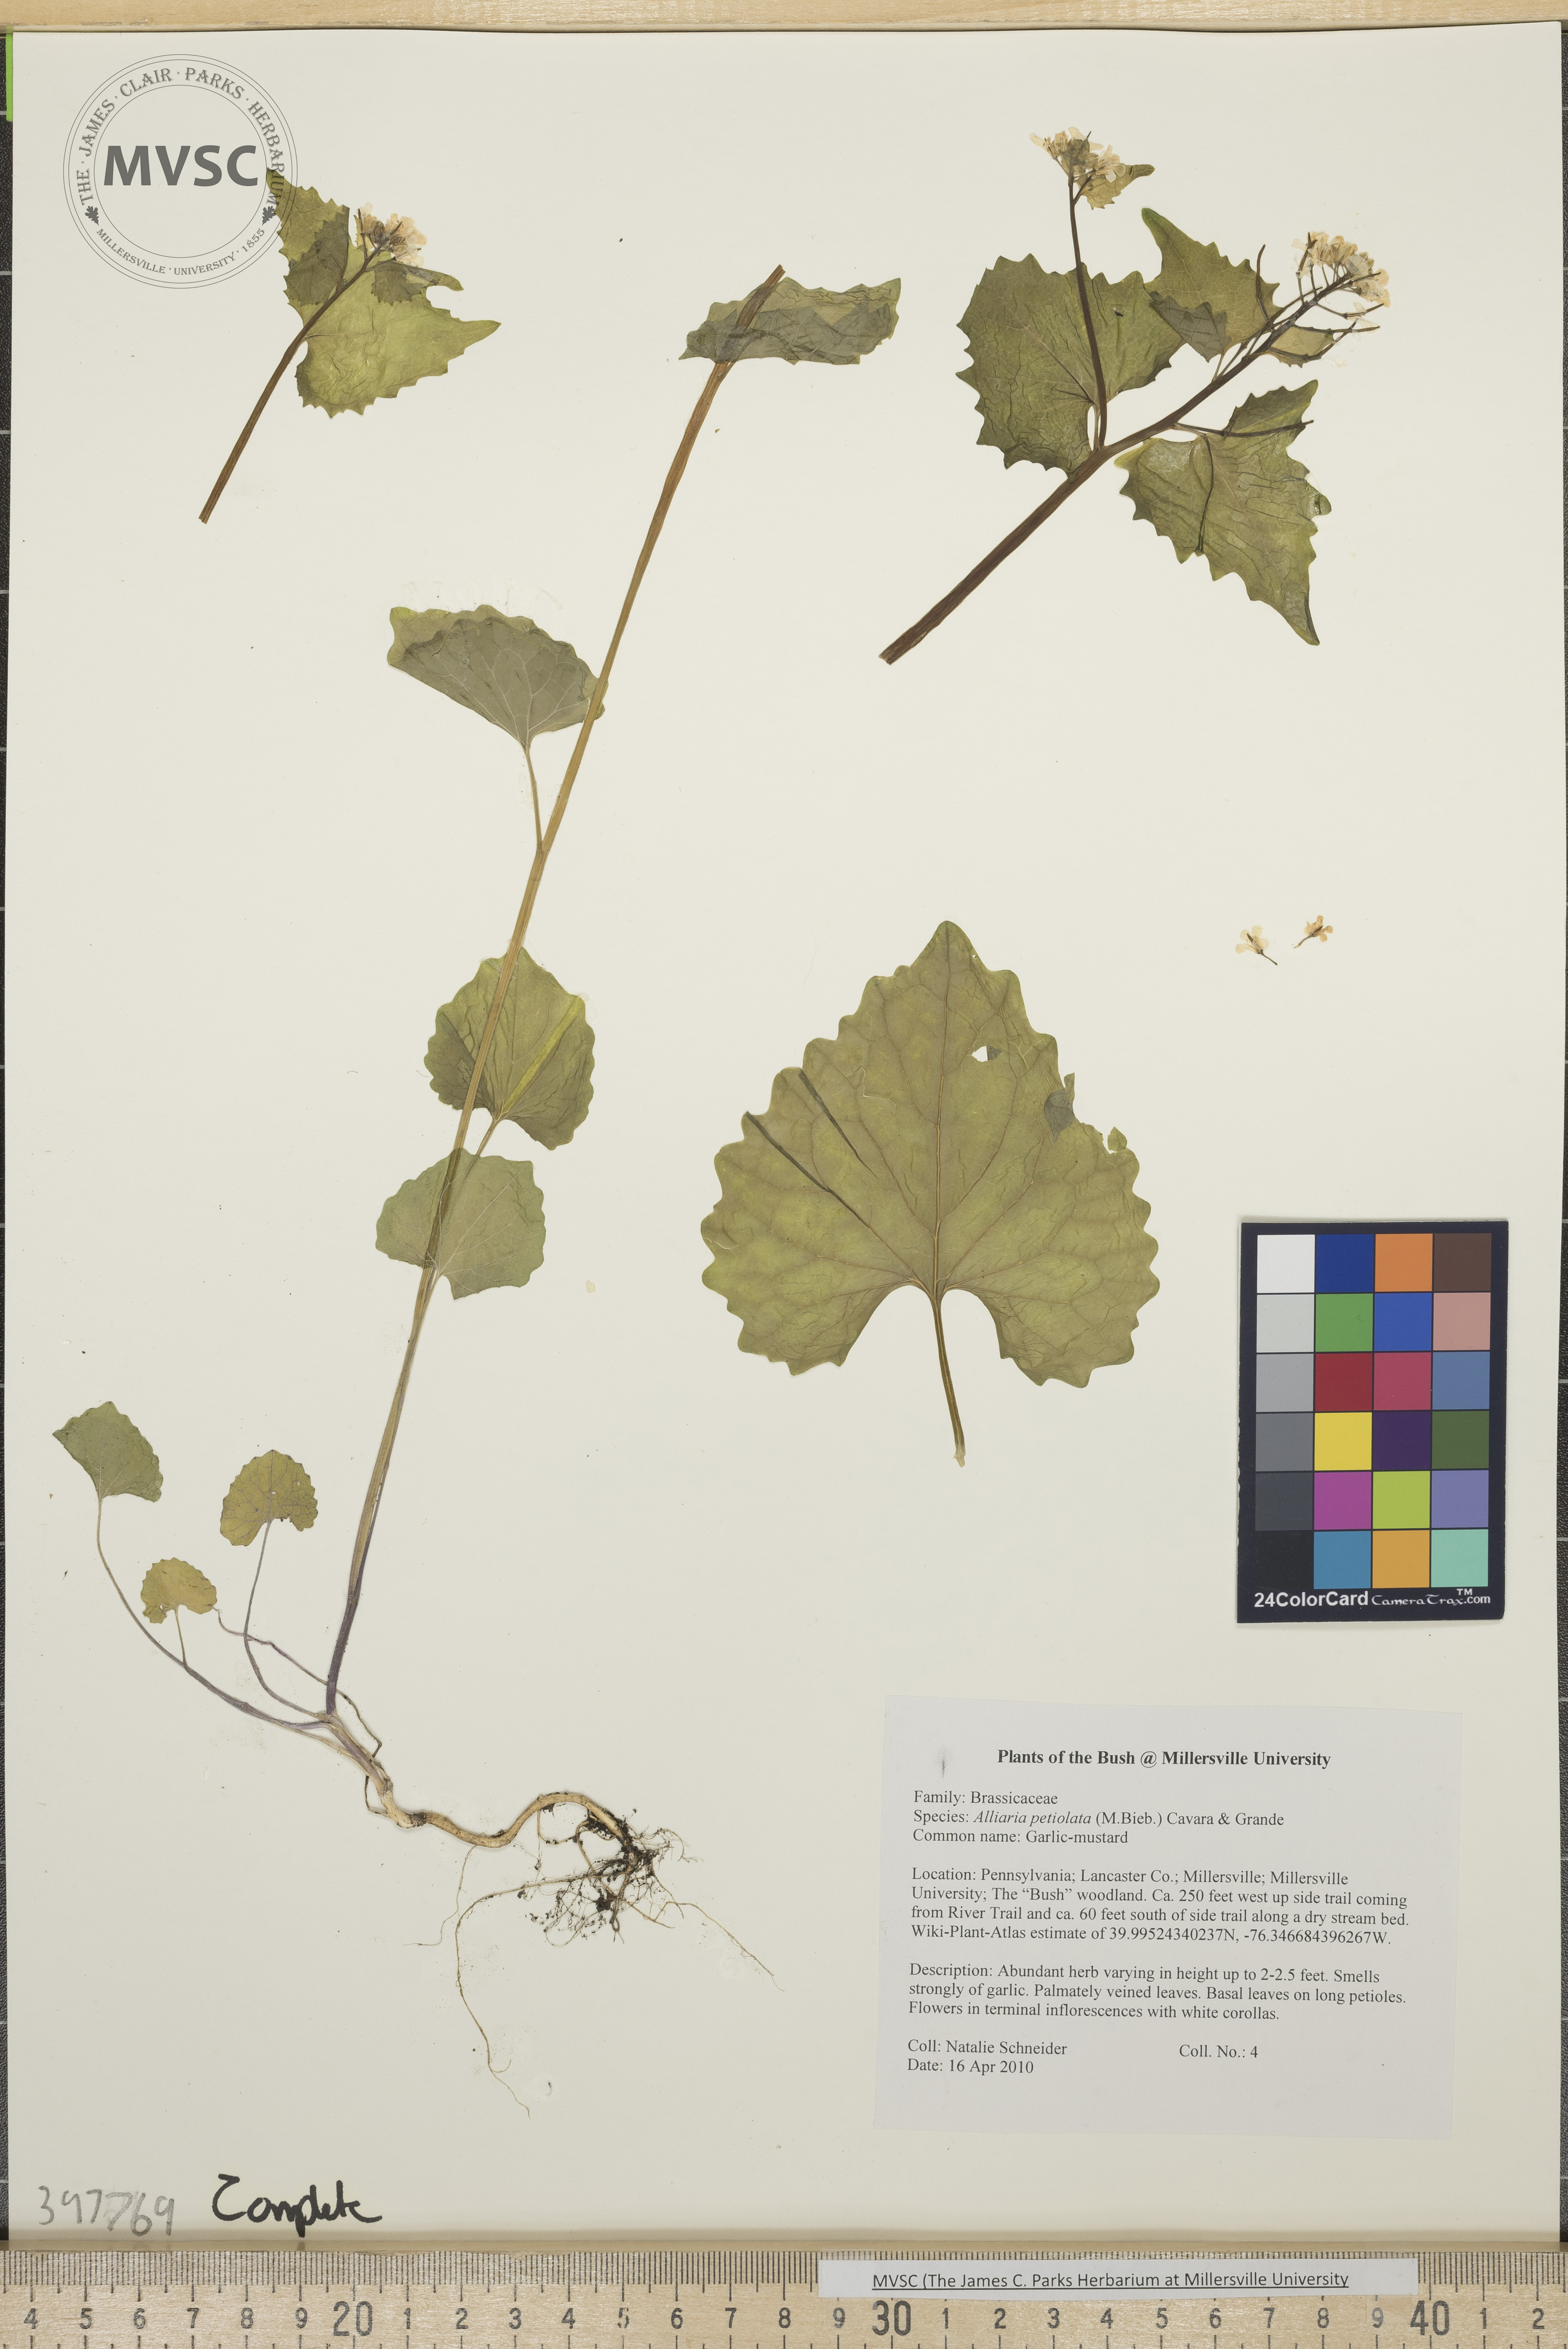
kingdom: Plantae
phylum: Tracheophyta
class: Magnoliopsida
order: Brassicales
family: Brassicaceae
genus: Alliaria
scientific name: Alliaria petiolata
